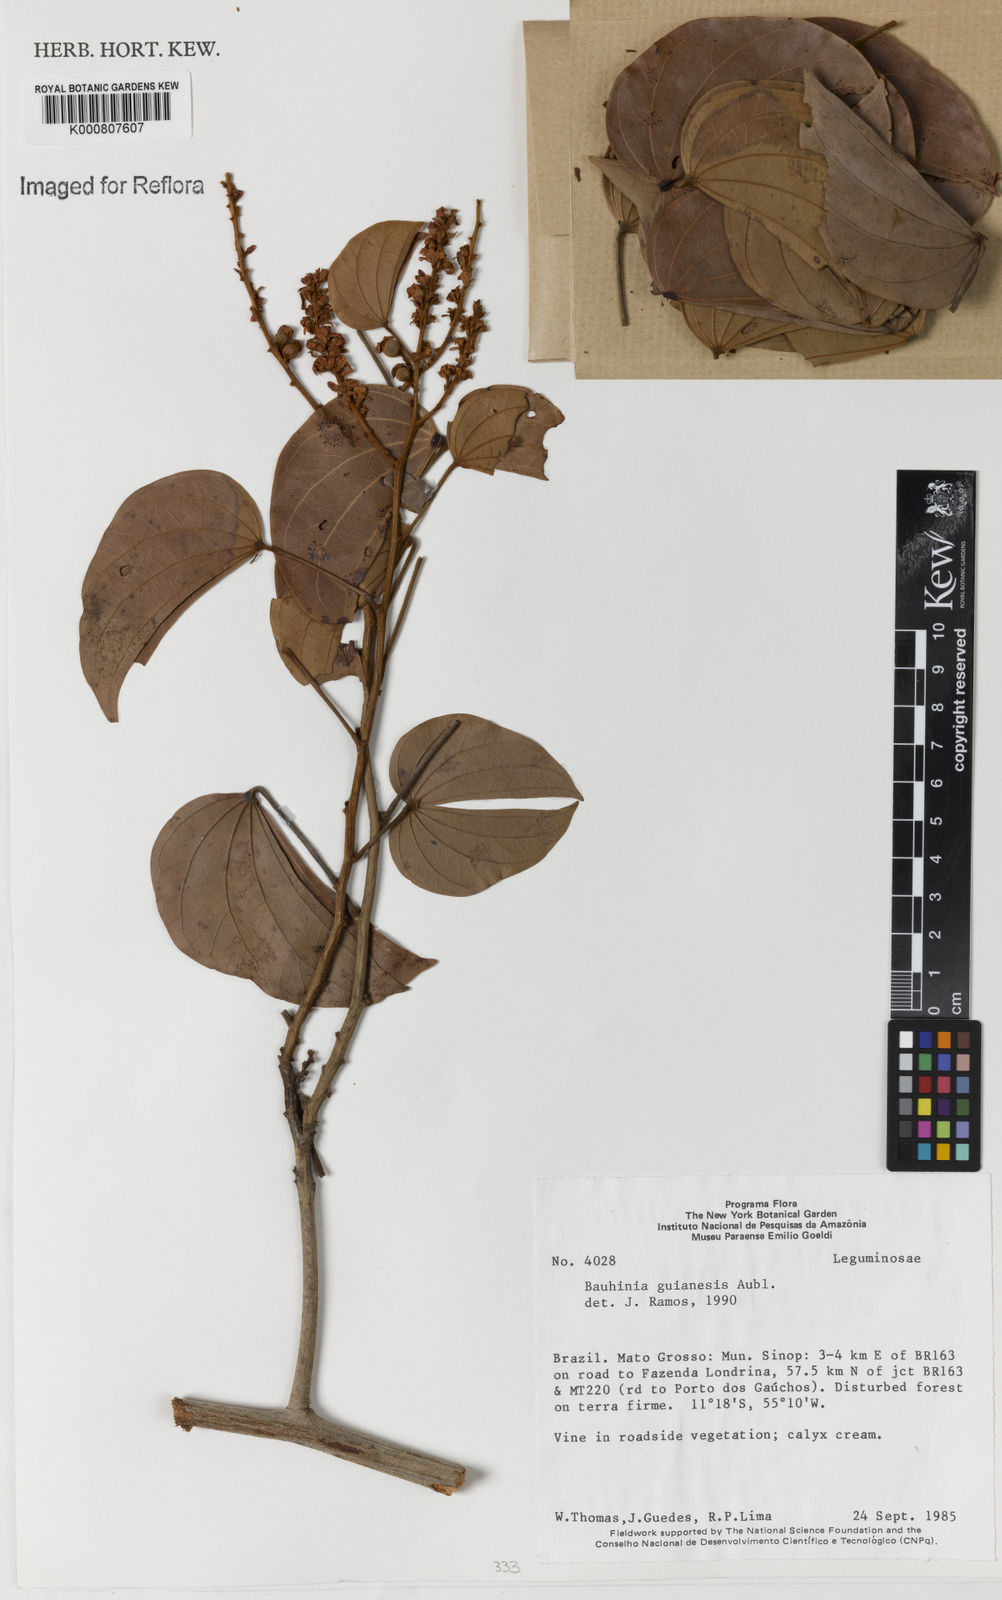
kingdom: Plantae
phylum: Tracheophyta
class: Magnoliopsida
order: Fabales
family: Fabaceae
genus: Schnella
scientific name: Schnella guianensis
